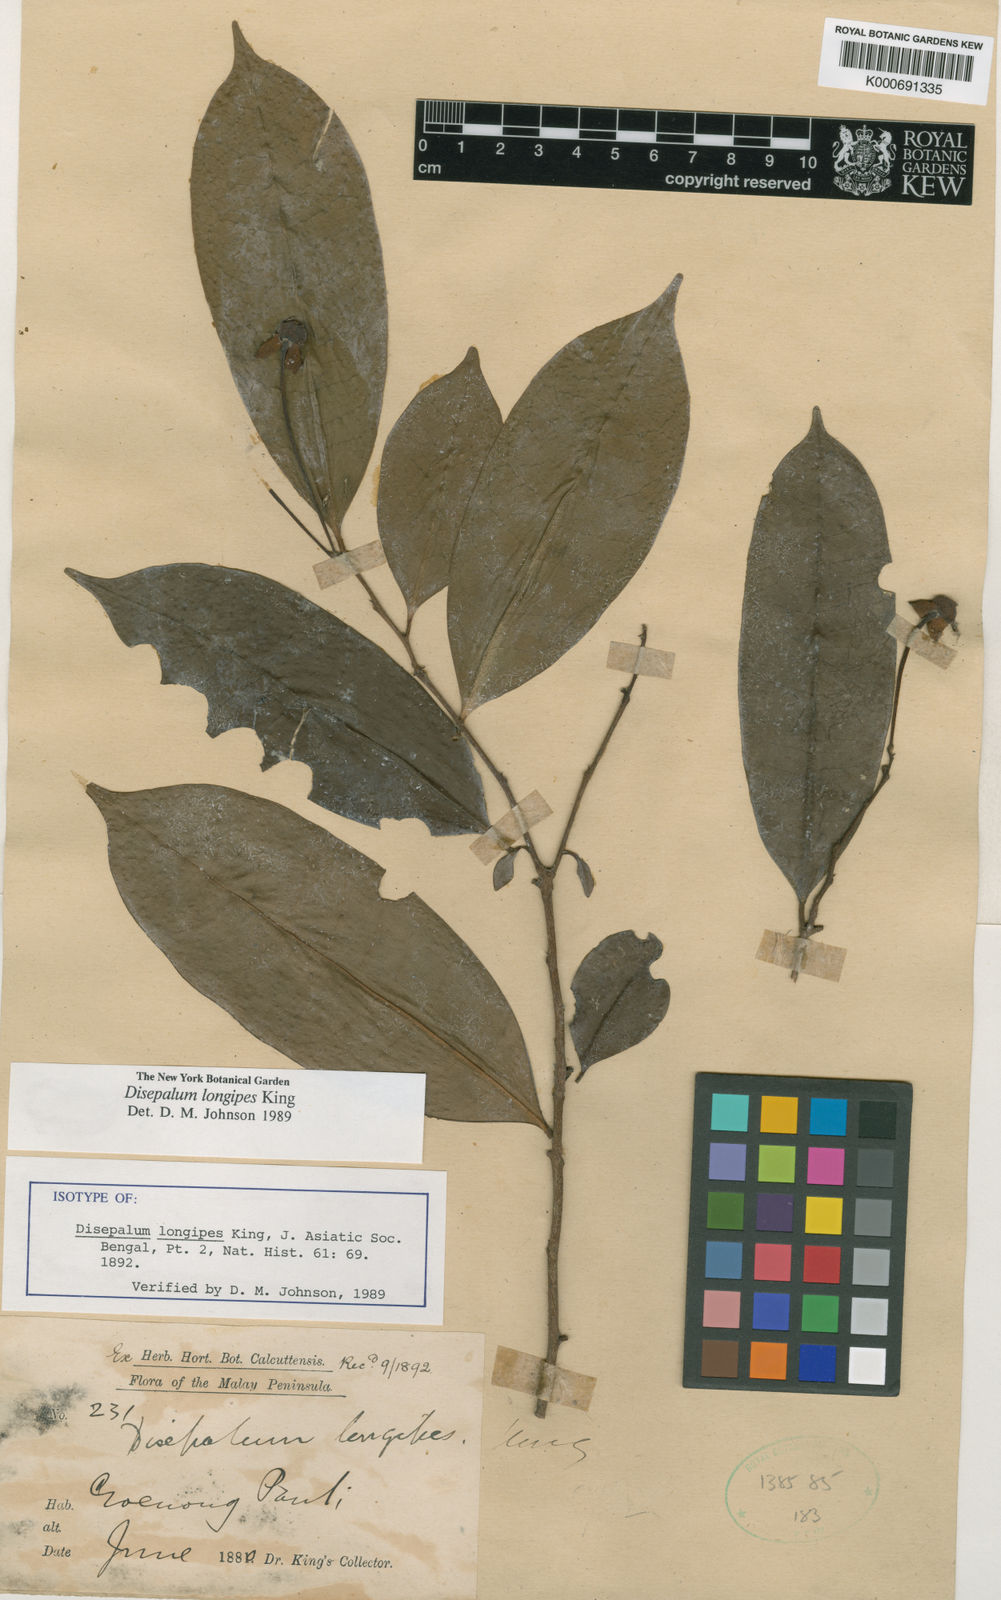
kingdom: Plantae
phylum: Tracheophyta
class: Magnoliopsida
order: Magnoliales
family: Annonaceae
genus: Disepalum
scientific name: Disepalum longipes
